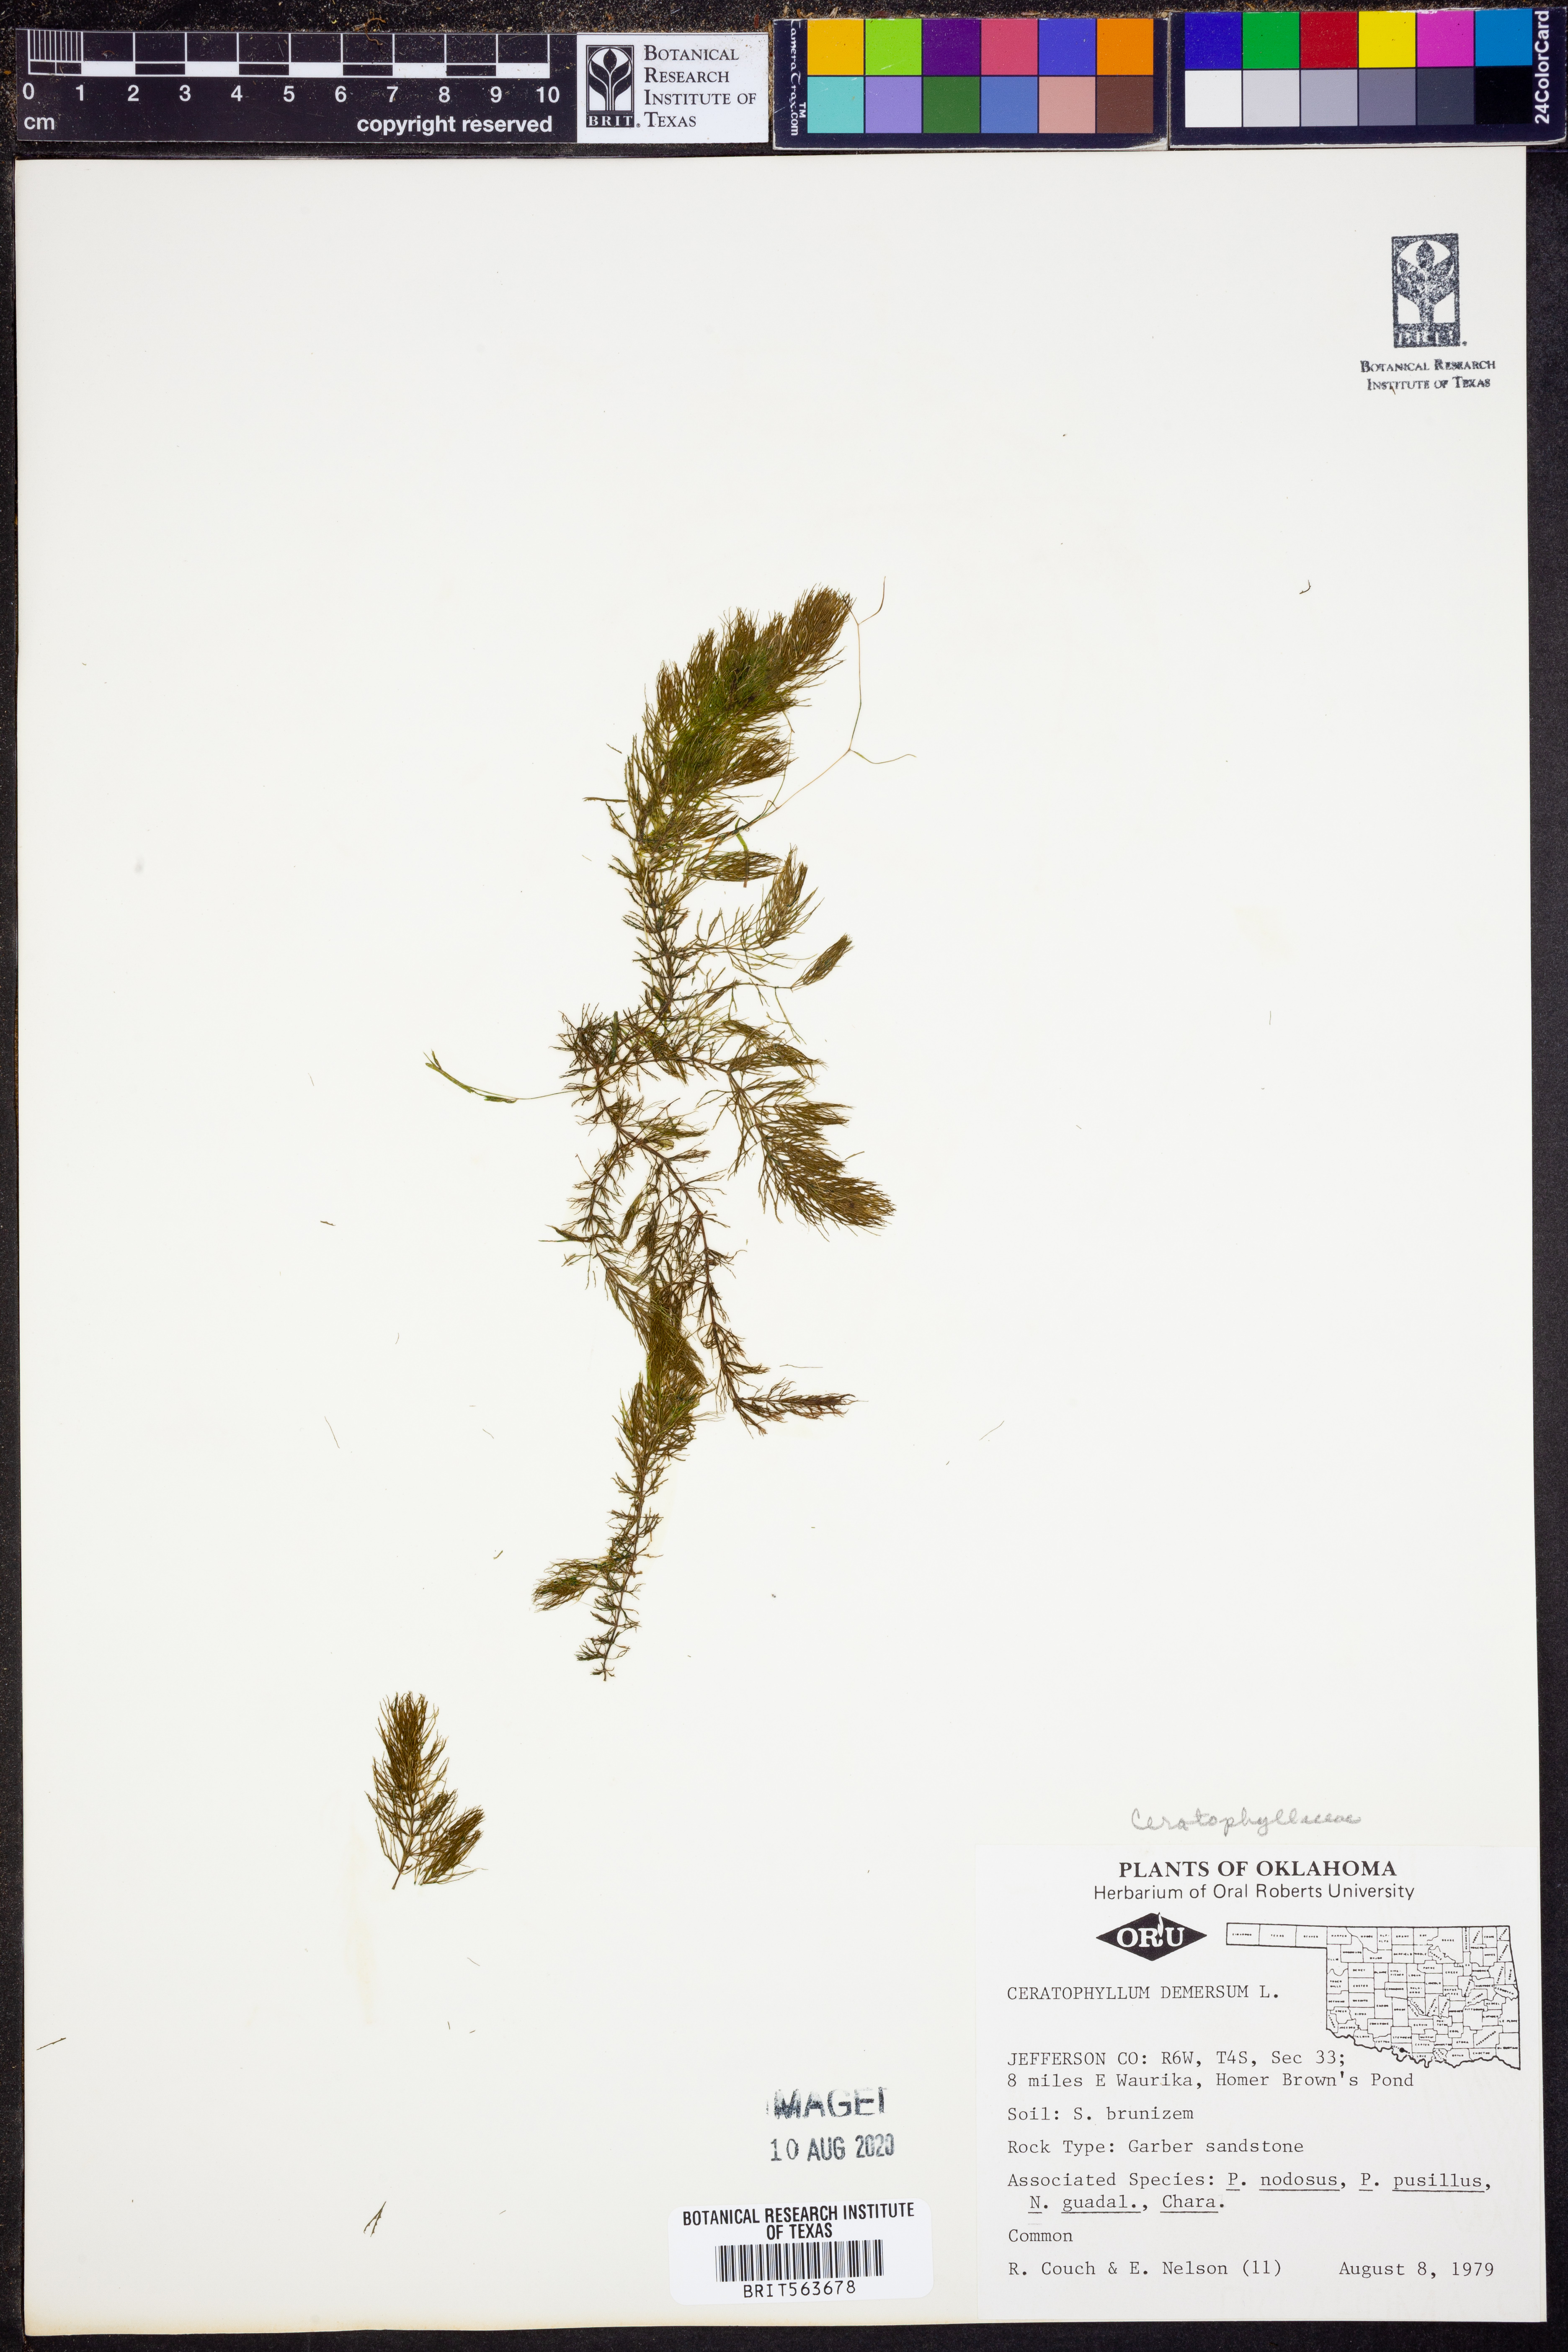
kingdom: Plantae
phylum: Tracheophyta
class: Magnoliopsida
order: Ceratophyllales
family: Ceratophyllaceae
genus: Ceratophyllum
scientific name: Ceratophyllum demersum
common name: Rigid hornwort
